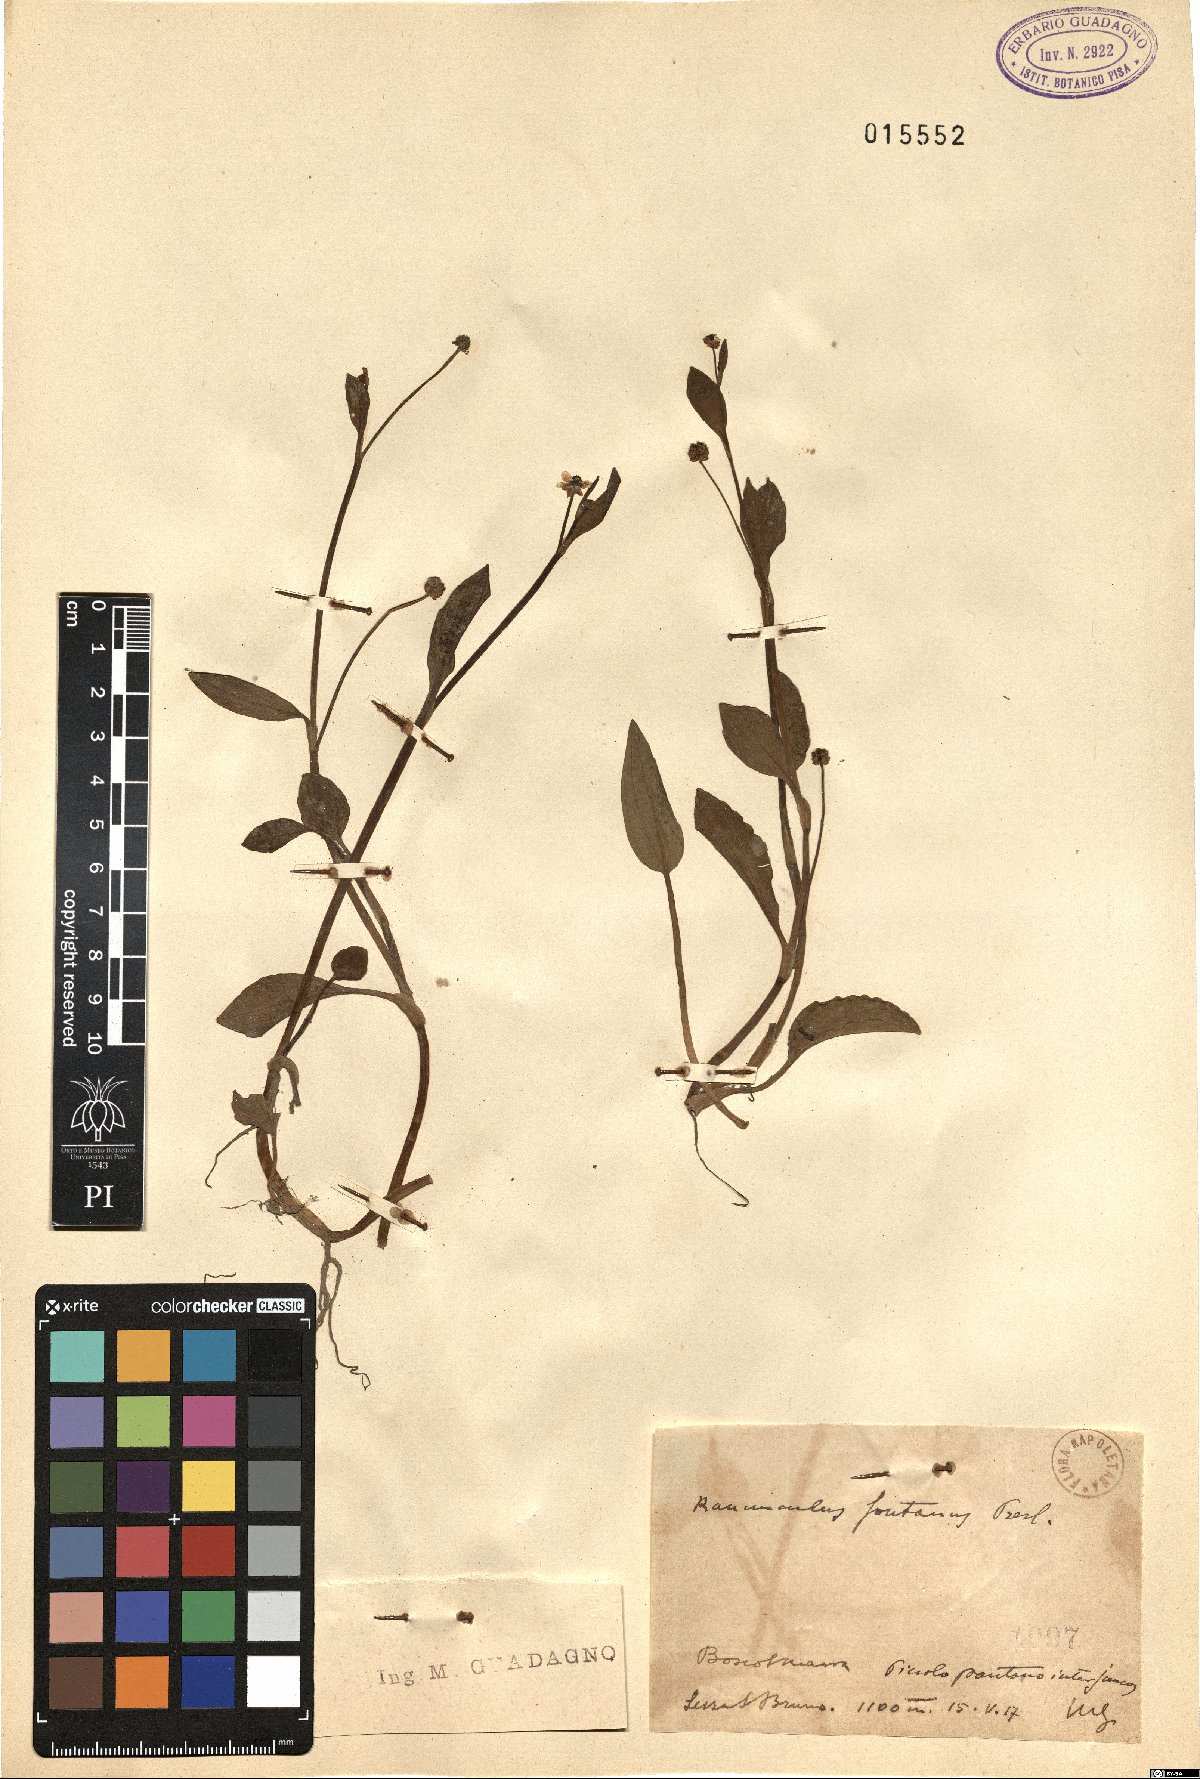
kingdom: Plantae
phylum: Tracheophyta
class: Magnoliopsida
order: Ranunculales
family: Ranunculaceae
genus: Ranunculus
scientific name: Ranunculus fontanus
